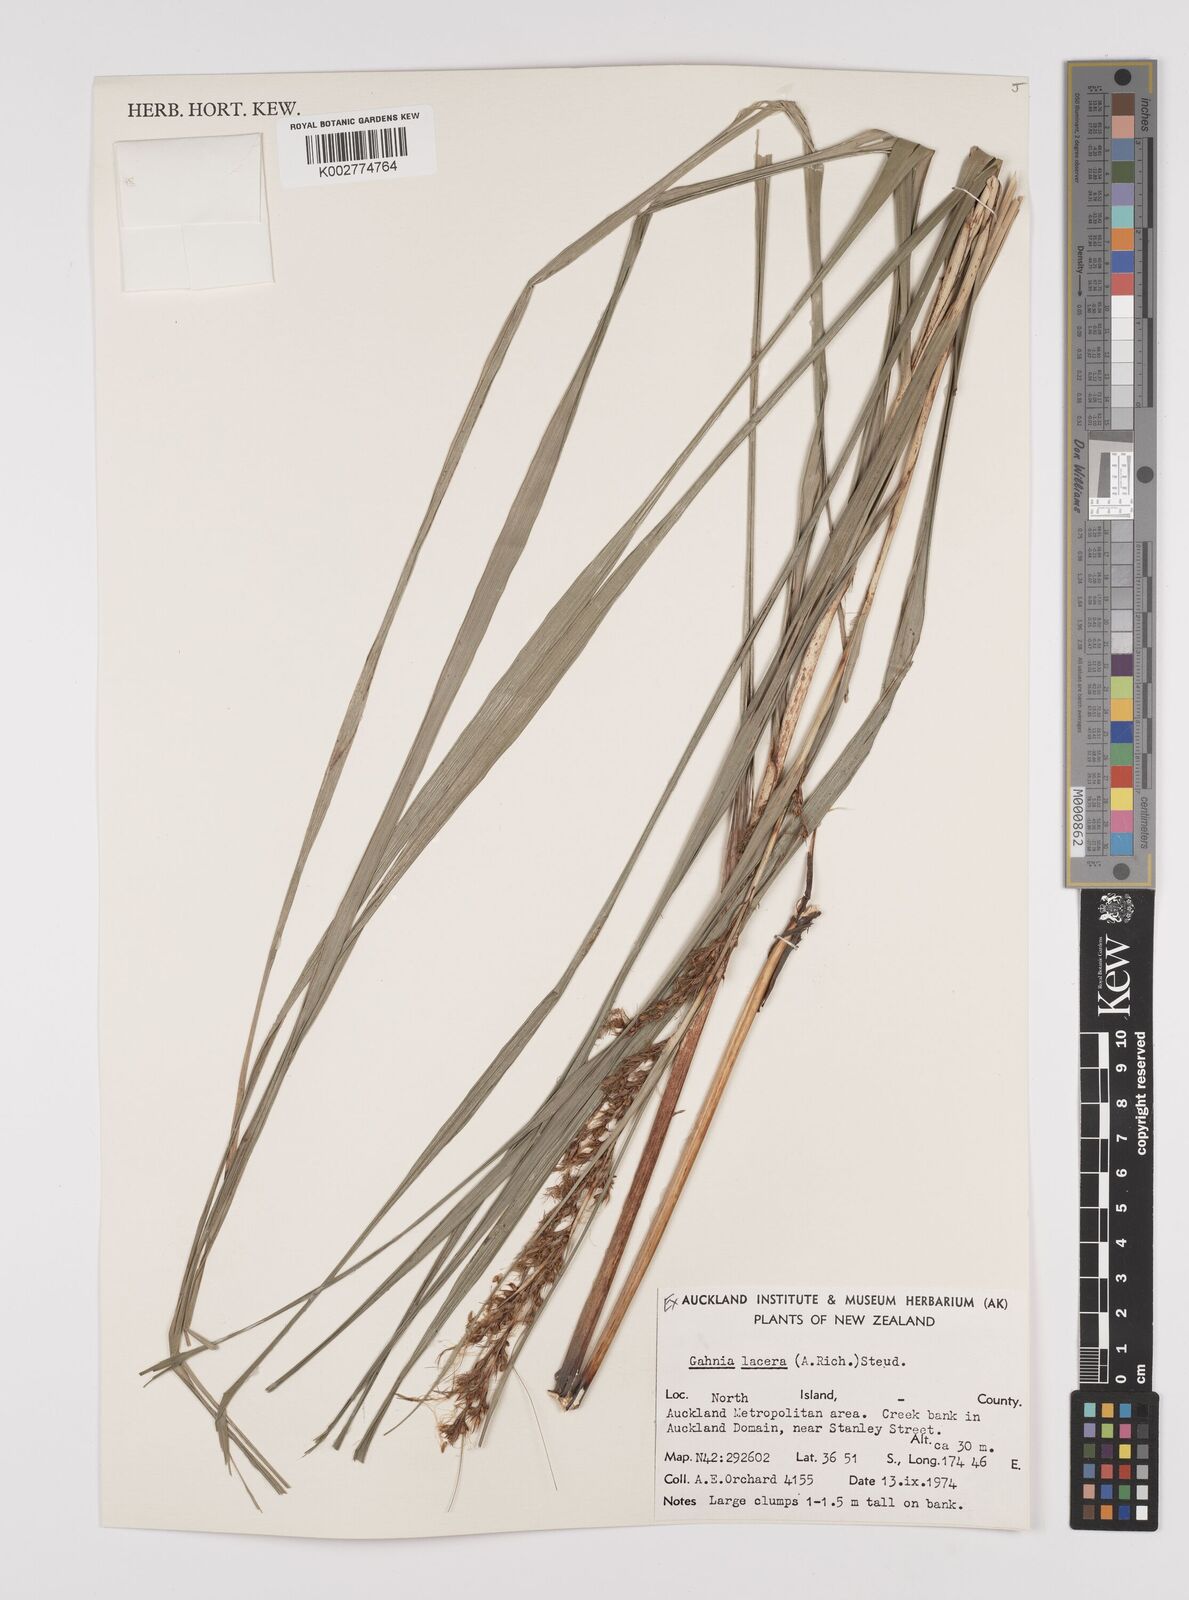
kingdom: Plantae
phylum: Tracheophyta
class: Liliopsida
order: Poales
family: Cyperaceae
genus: Gahnia
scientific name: Gahnia lacera
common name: Sawsedge
